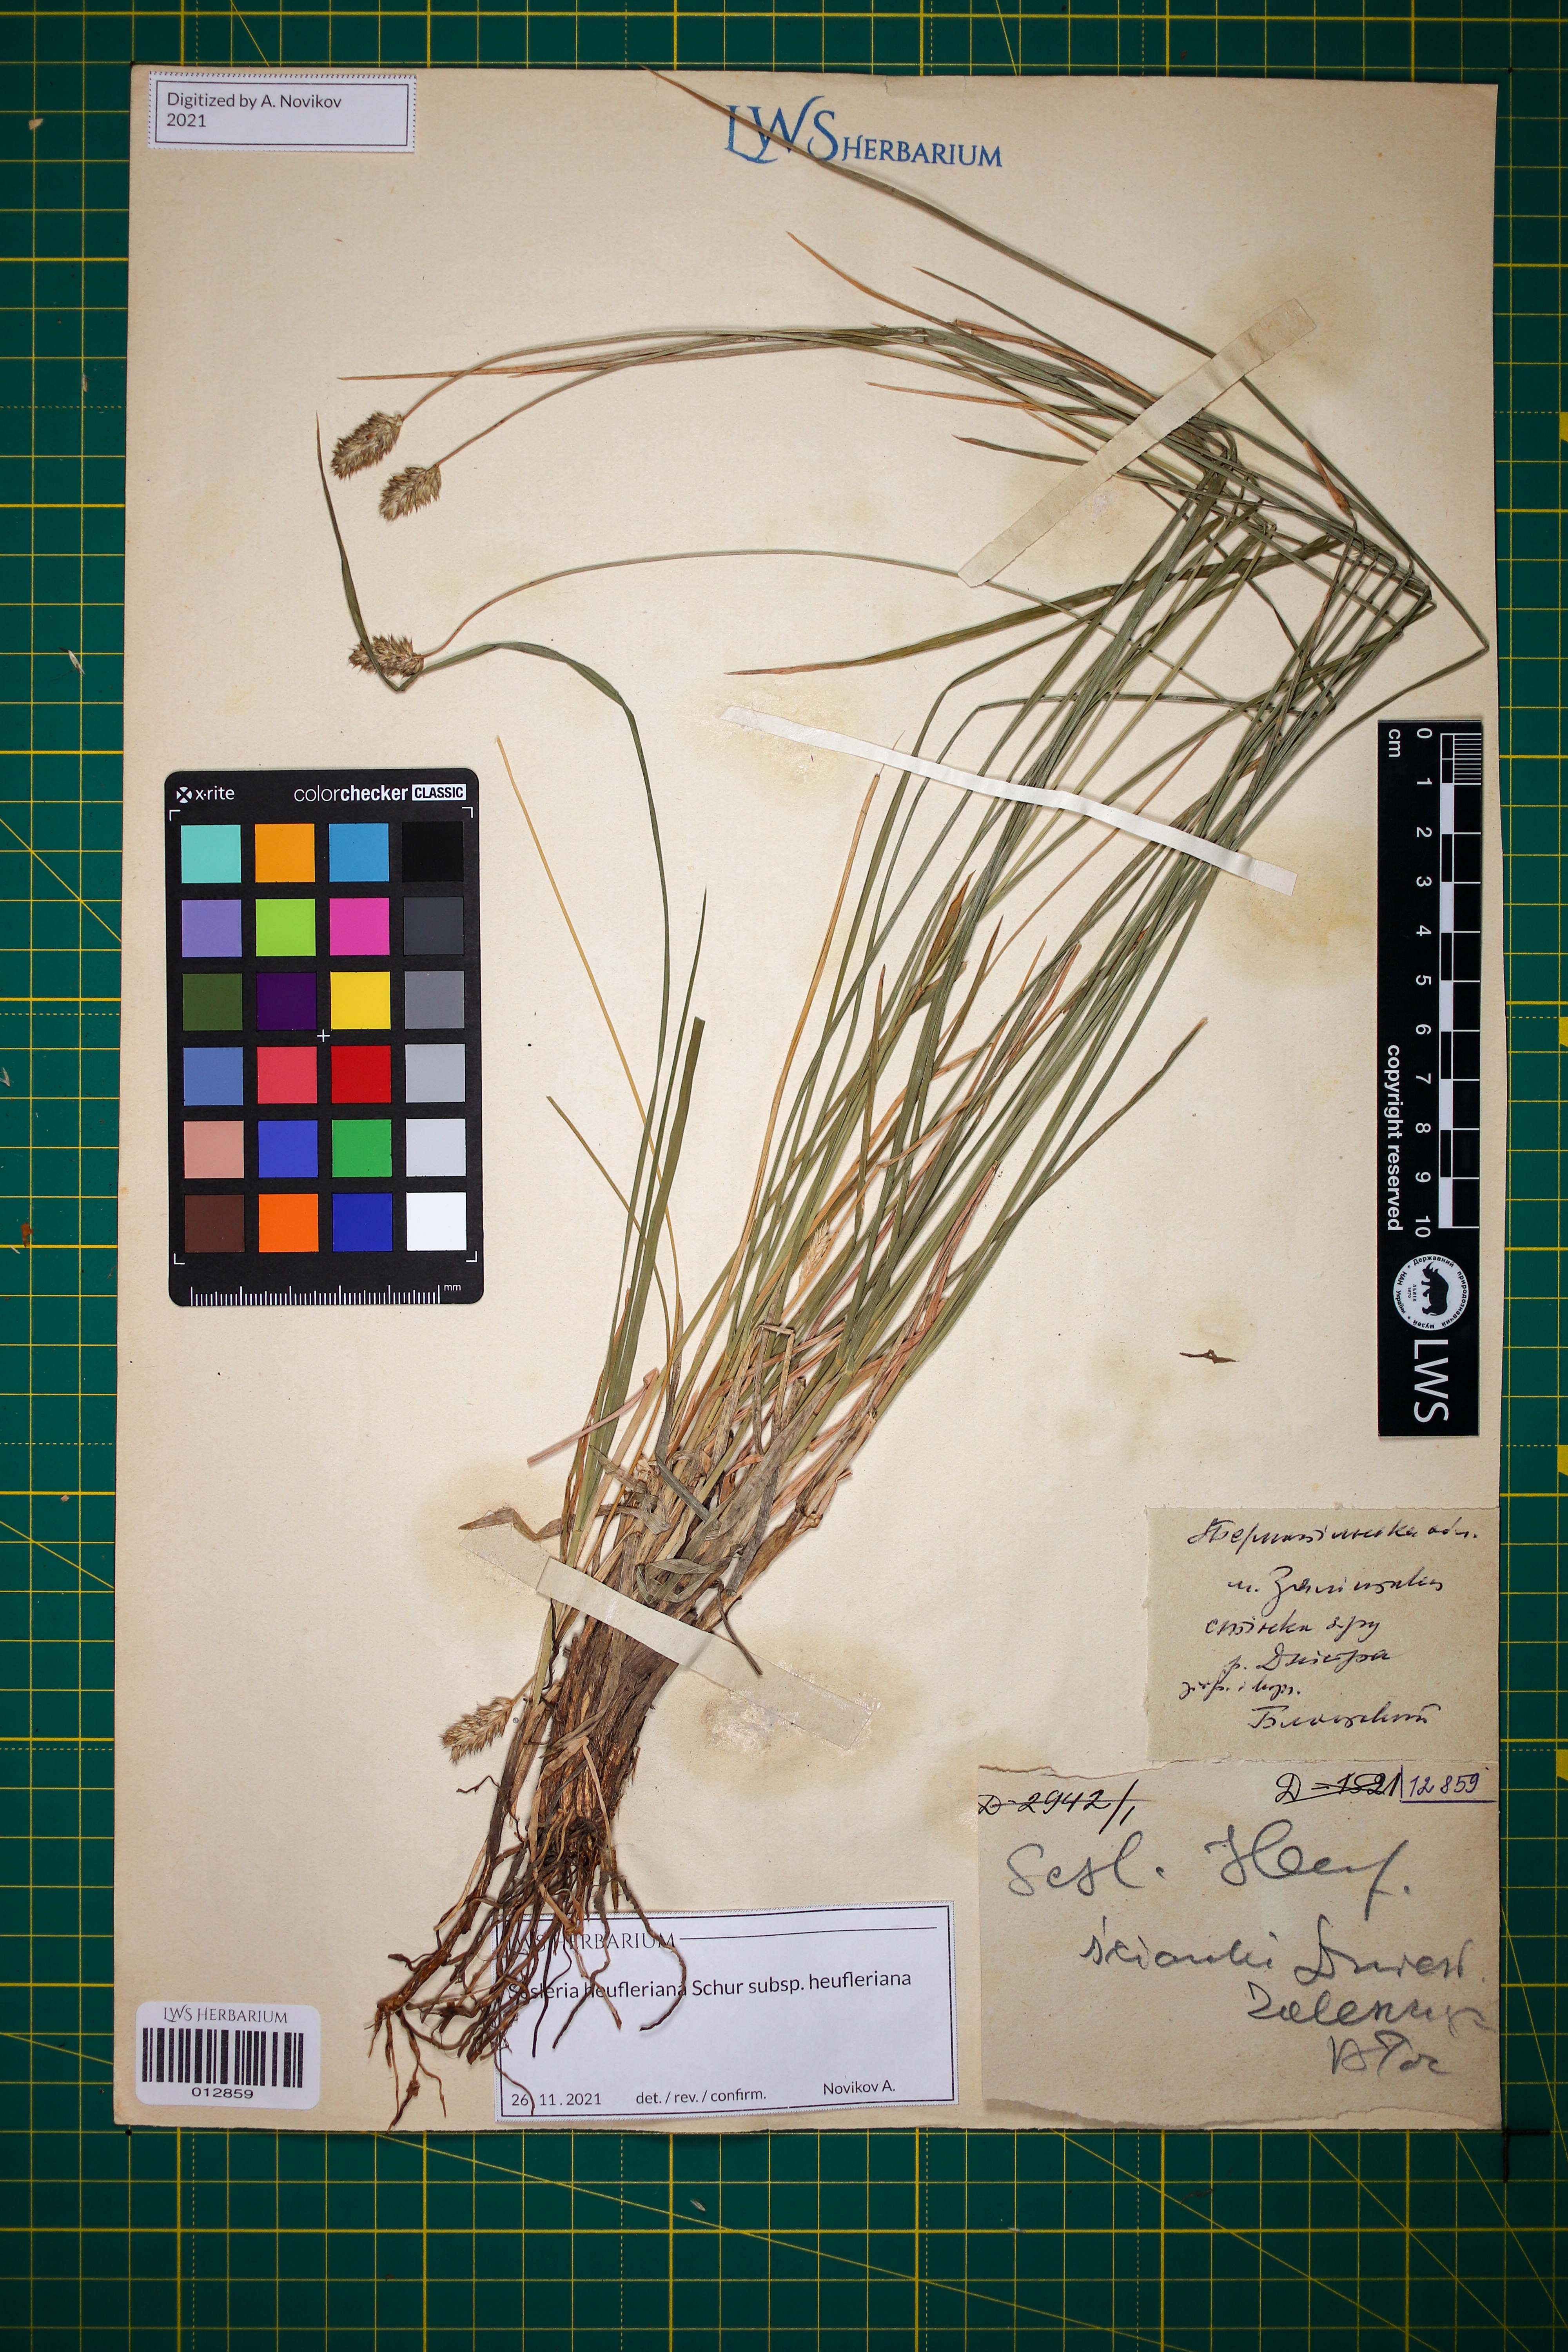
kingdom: Plantae
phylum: Tracheophyta
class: Liliopsida
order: Poales
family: Poaceae
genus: Sesleria
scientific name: Sesleria heufleriana
